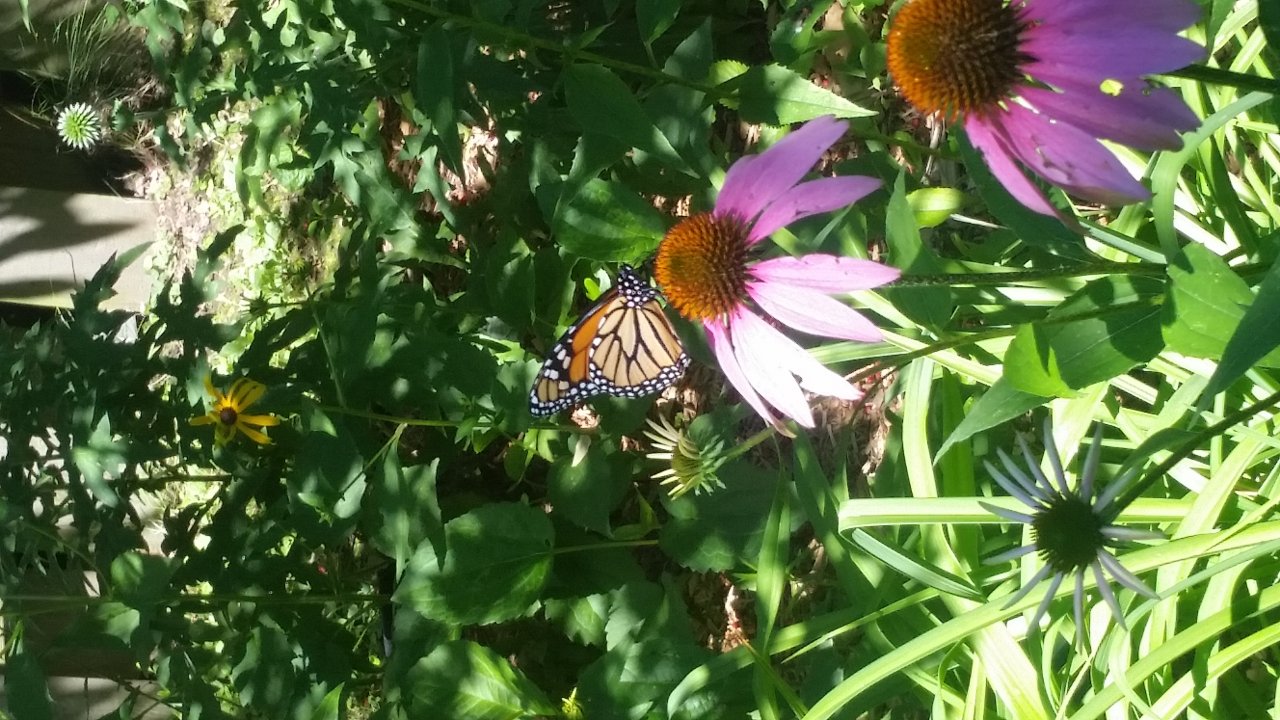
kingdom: Animalia
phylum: Arthropoda
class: Insecta
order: Lepidoptera
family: Nymphalidae
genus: Danaus
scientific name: Danaus plexippus
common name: Monarch
